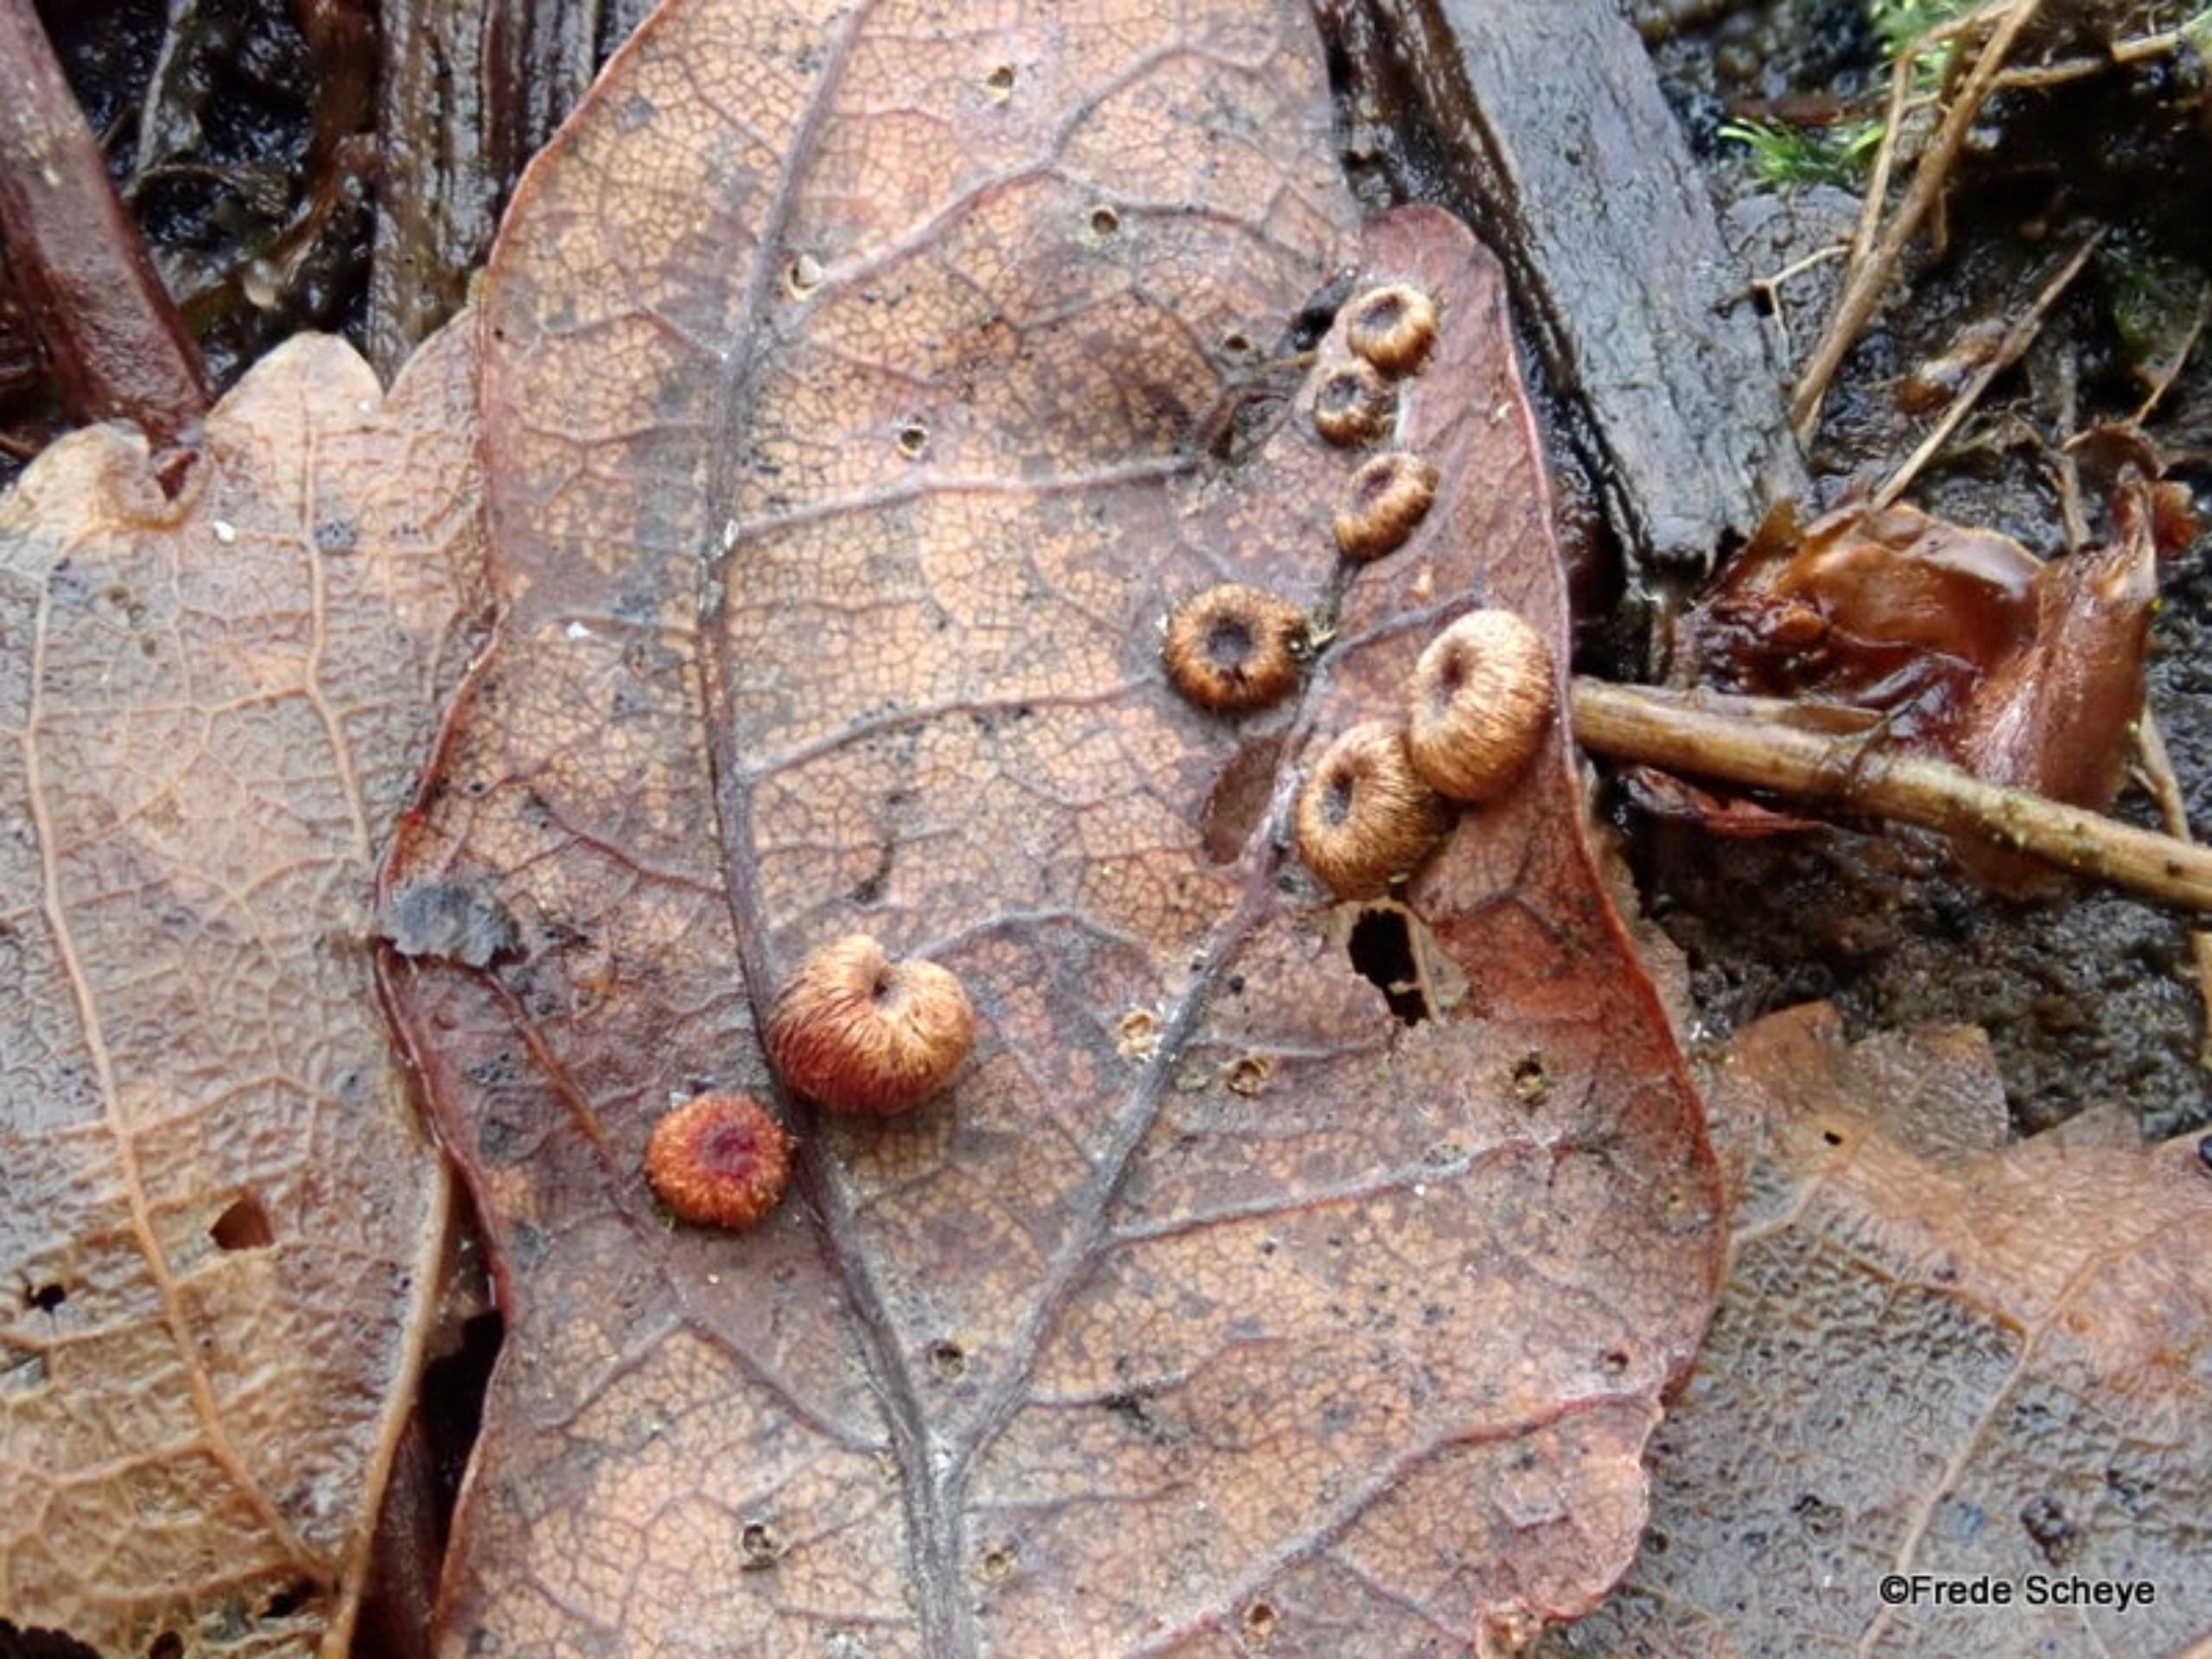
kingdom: Animalia
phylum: Arthropoda
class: Insecta
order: Hymenoptera
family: Cynipidae
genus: Neuroterus
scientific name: Neuroterus numismalis
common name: Knapgalhveps
